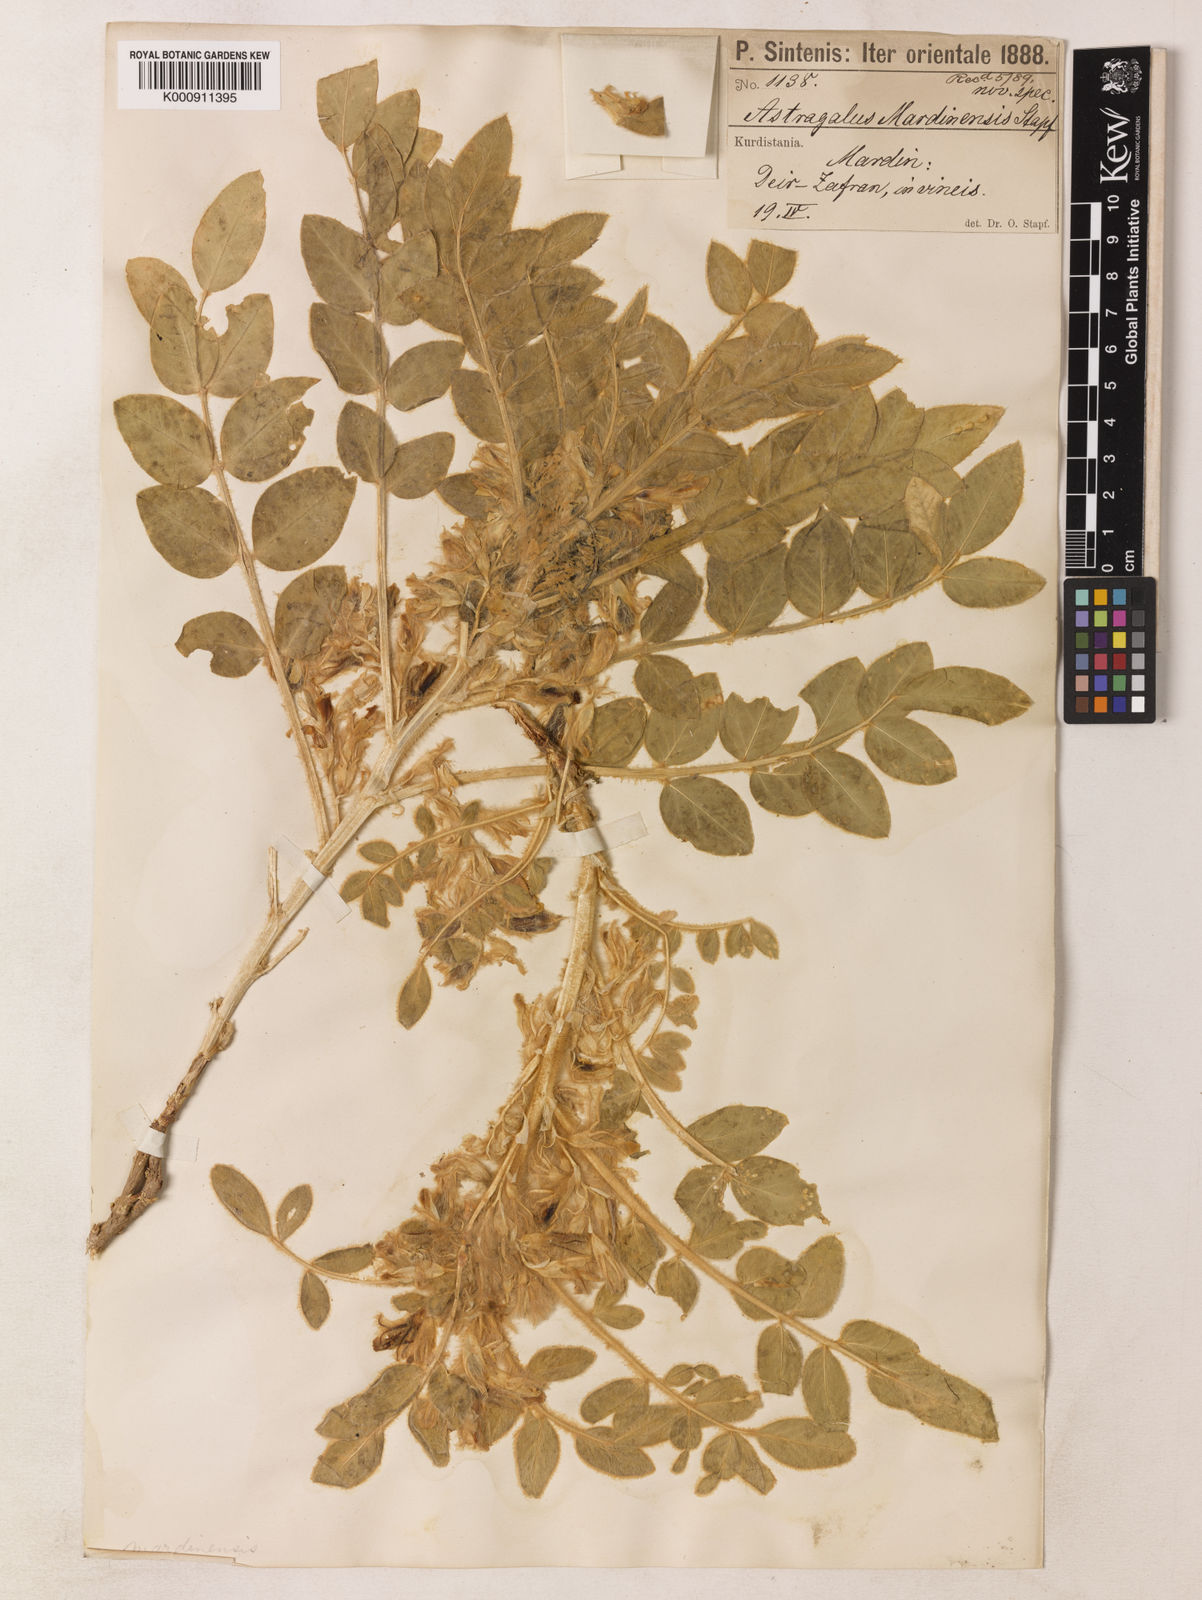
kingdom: Plantae
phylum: Tracheophyta
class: Magnoliopsida
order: Fabales
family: Fabaceae
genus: Astragalus
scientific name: Astragalus
